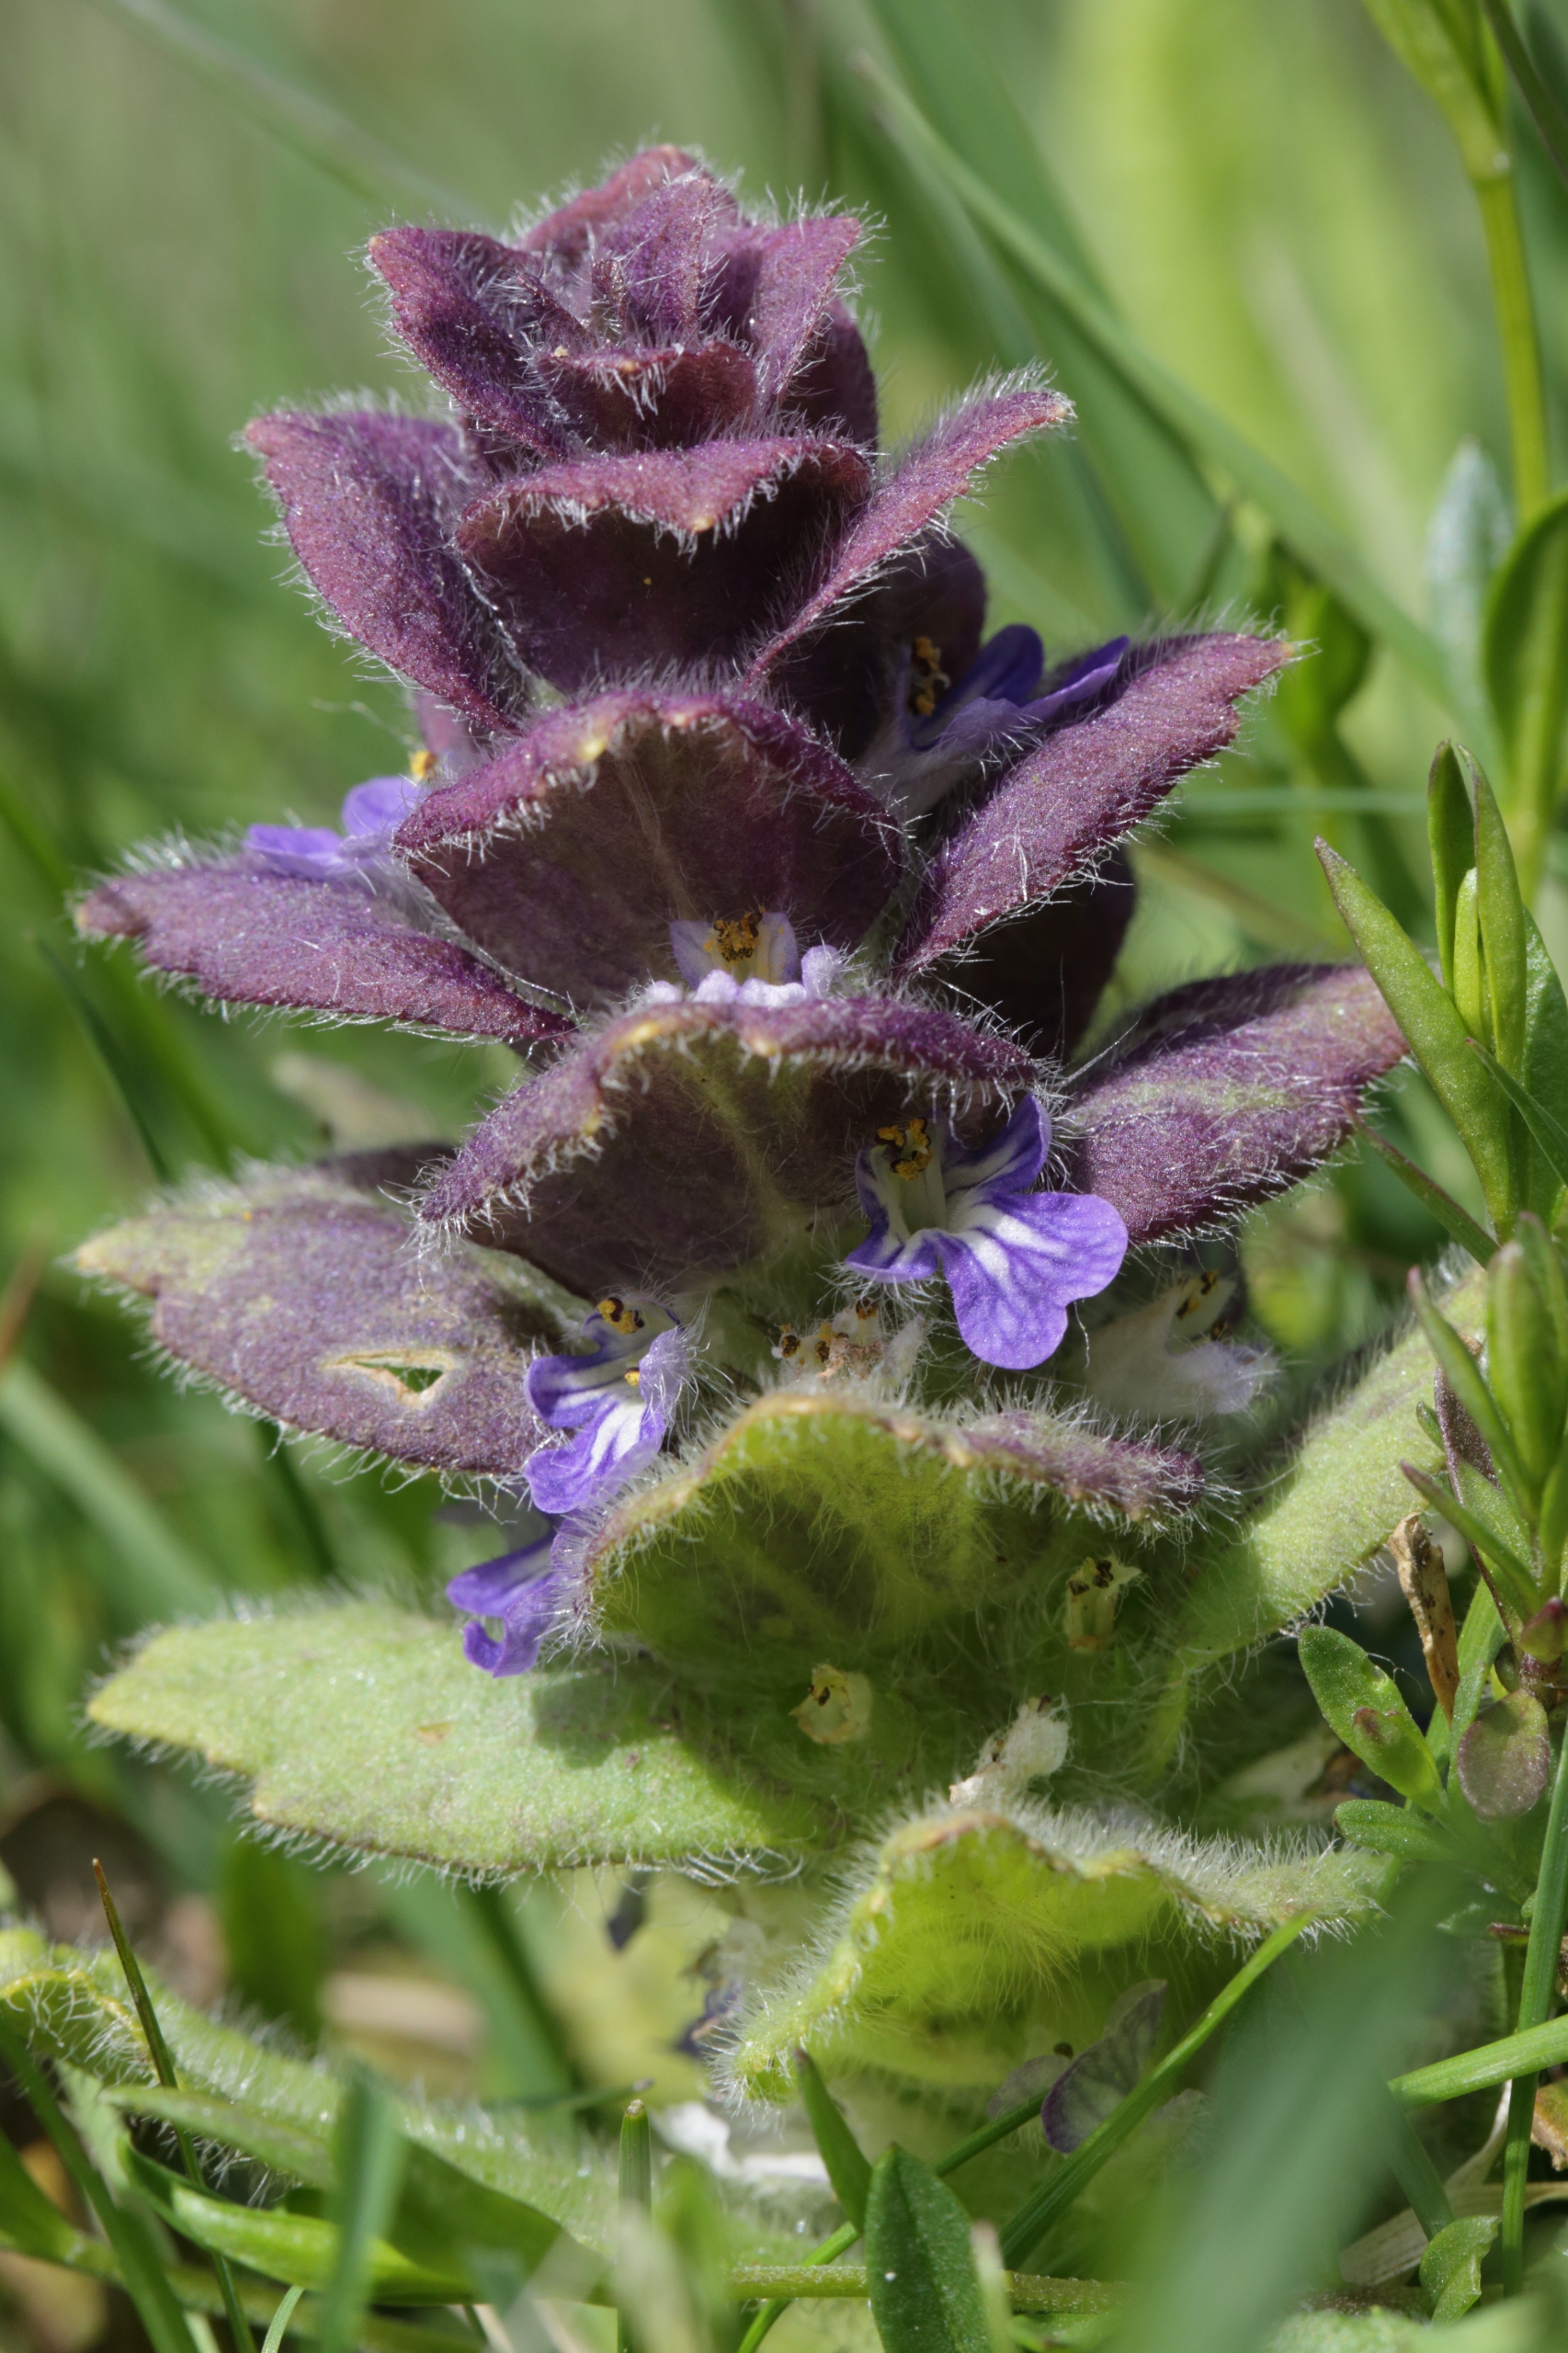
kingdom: Plantae
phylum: Tracheophyta
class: Magnoliopsida
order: Lamiales
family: Lamiaceae
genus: Ajuga
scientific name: Ajuga pyramidalis
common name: Pyramide-læbeløs
